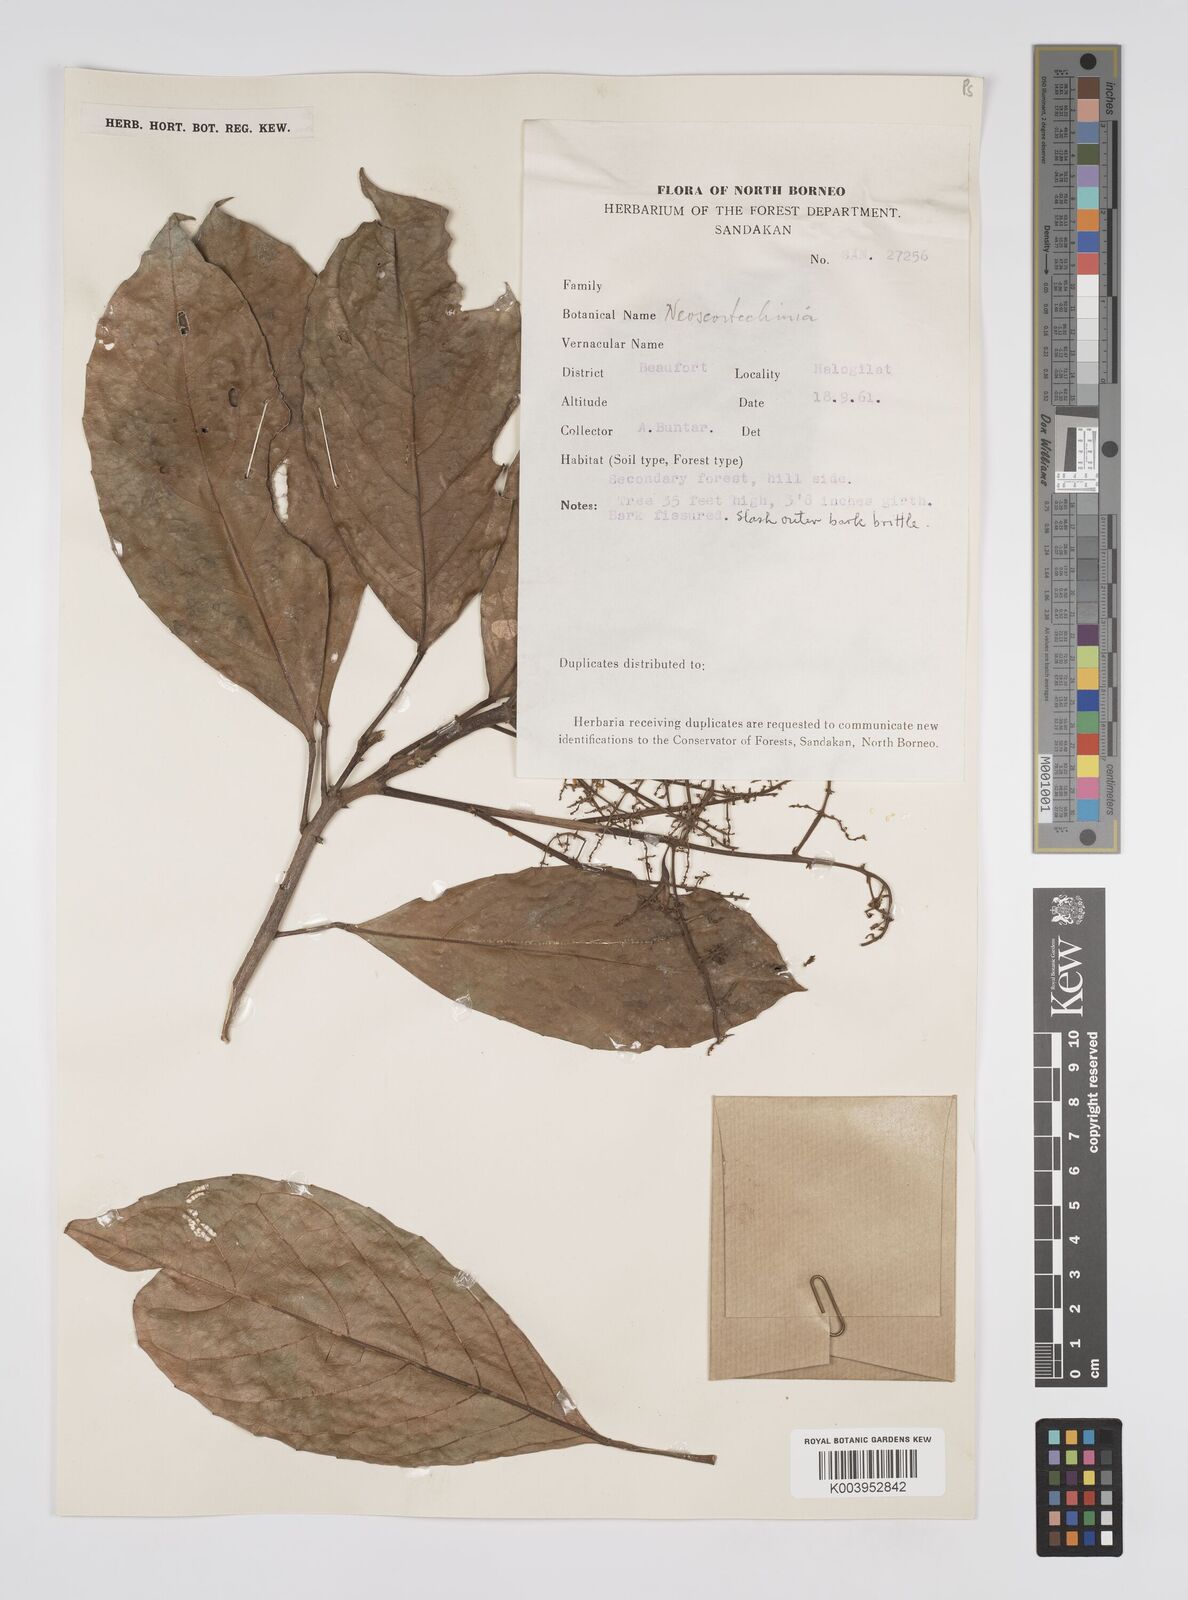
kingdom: Plantae
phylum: Tracheophyta
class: Magnoliopsida
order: Malpighiales
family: Euphorbiaceae
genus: Neoscortechinia
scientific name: Neoscortechinia nicobarica
